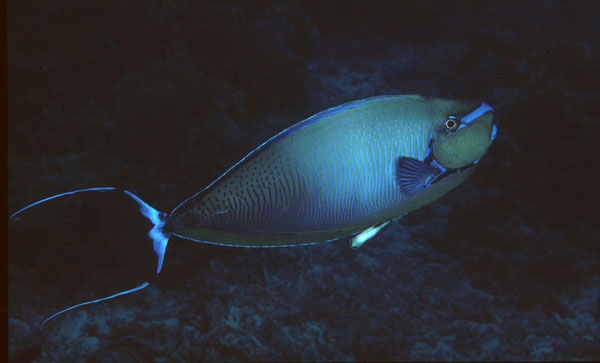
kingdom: Animalia
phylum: Chordata
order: Perciformes
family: Acanthuridae
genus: Naso
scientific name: Naso vlamingii
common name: Big-nose unicorn
